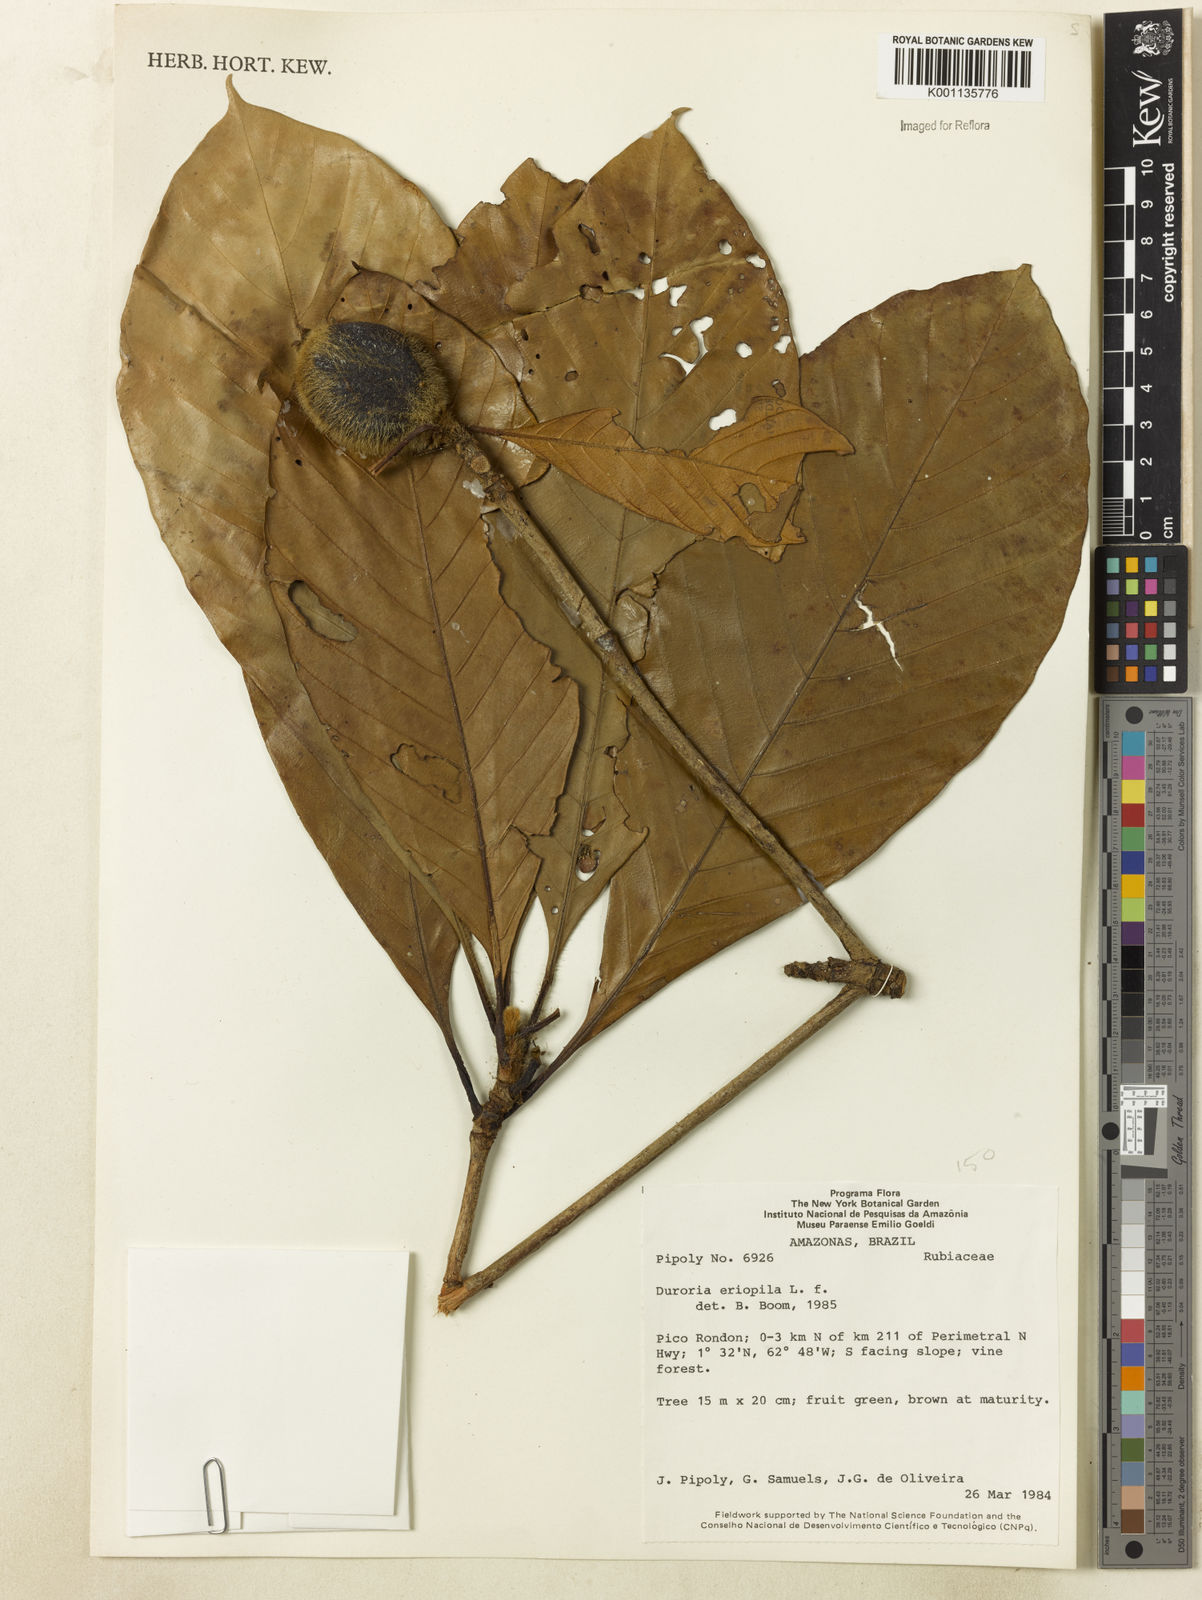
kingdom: Plantae
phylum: Tracheophyta
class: Magnoliopsida
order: Gentianales
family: Rubiaceae
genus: Duroia
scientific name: Duroia eriopila
